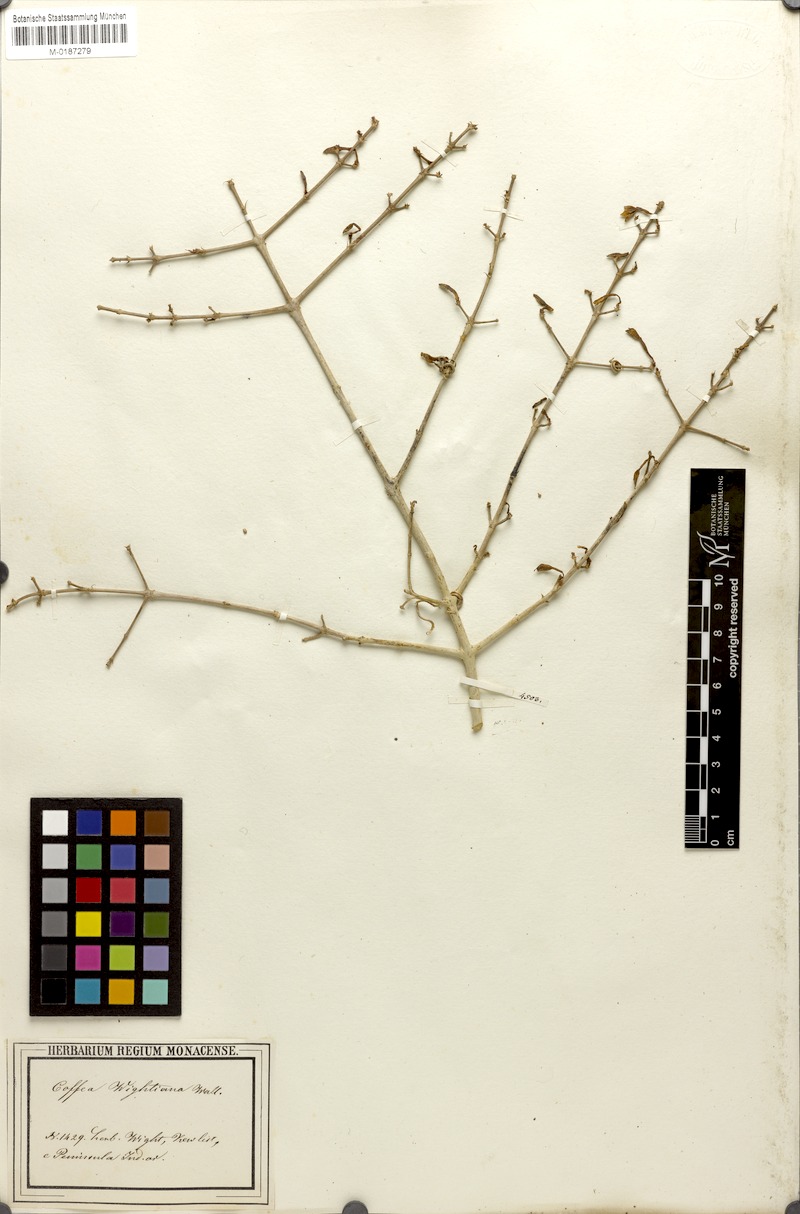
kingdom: Plantae
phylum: Tracheophyta
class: Magnoliopsida
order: Gentianales
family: Rubiaceae
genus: Coffea
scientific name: Coffea wightiana
